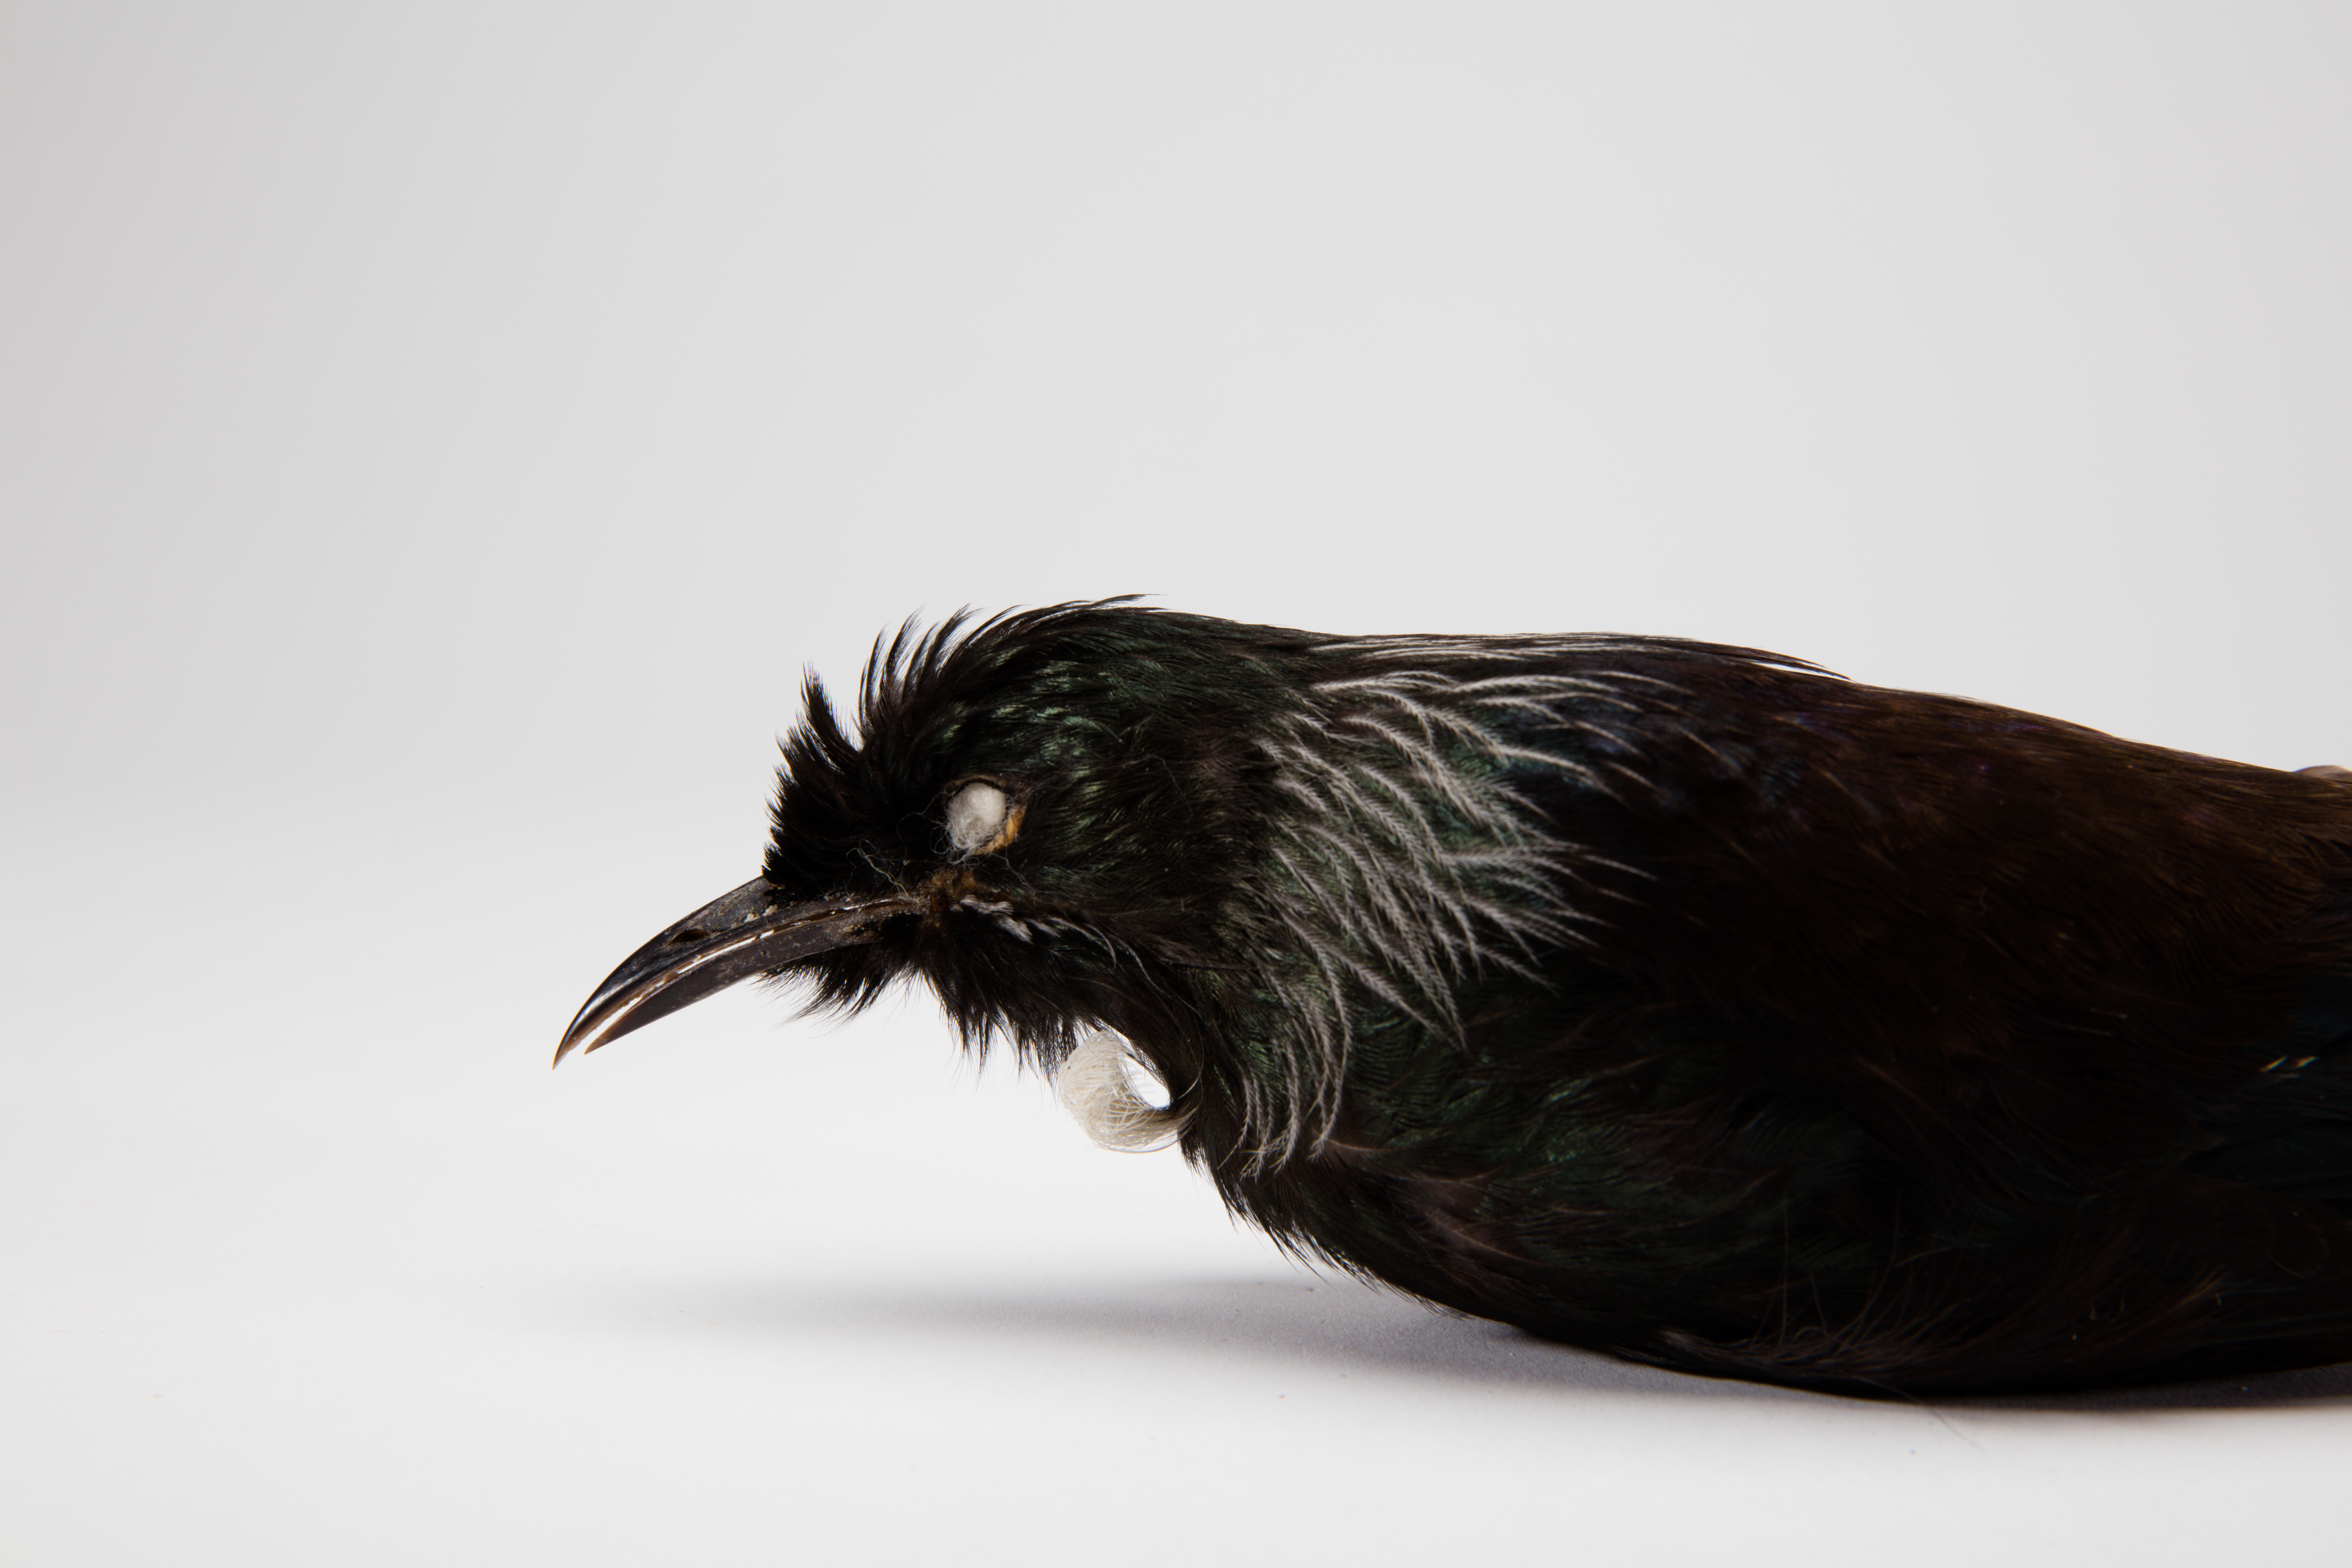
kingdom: Animalia
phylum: Chordata
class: Aves
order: Passeriformes
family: Meliphagidae
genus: Prosthemadera
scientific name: Prosthemadera novaeseelandiae
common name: Tui
